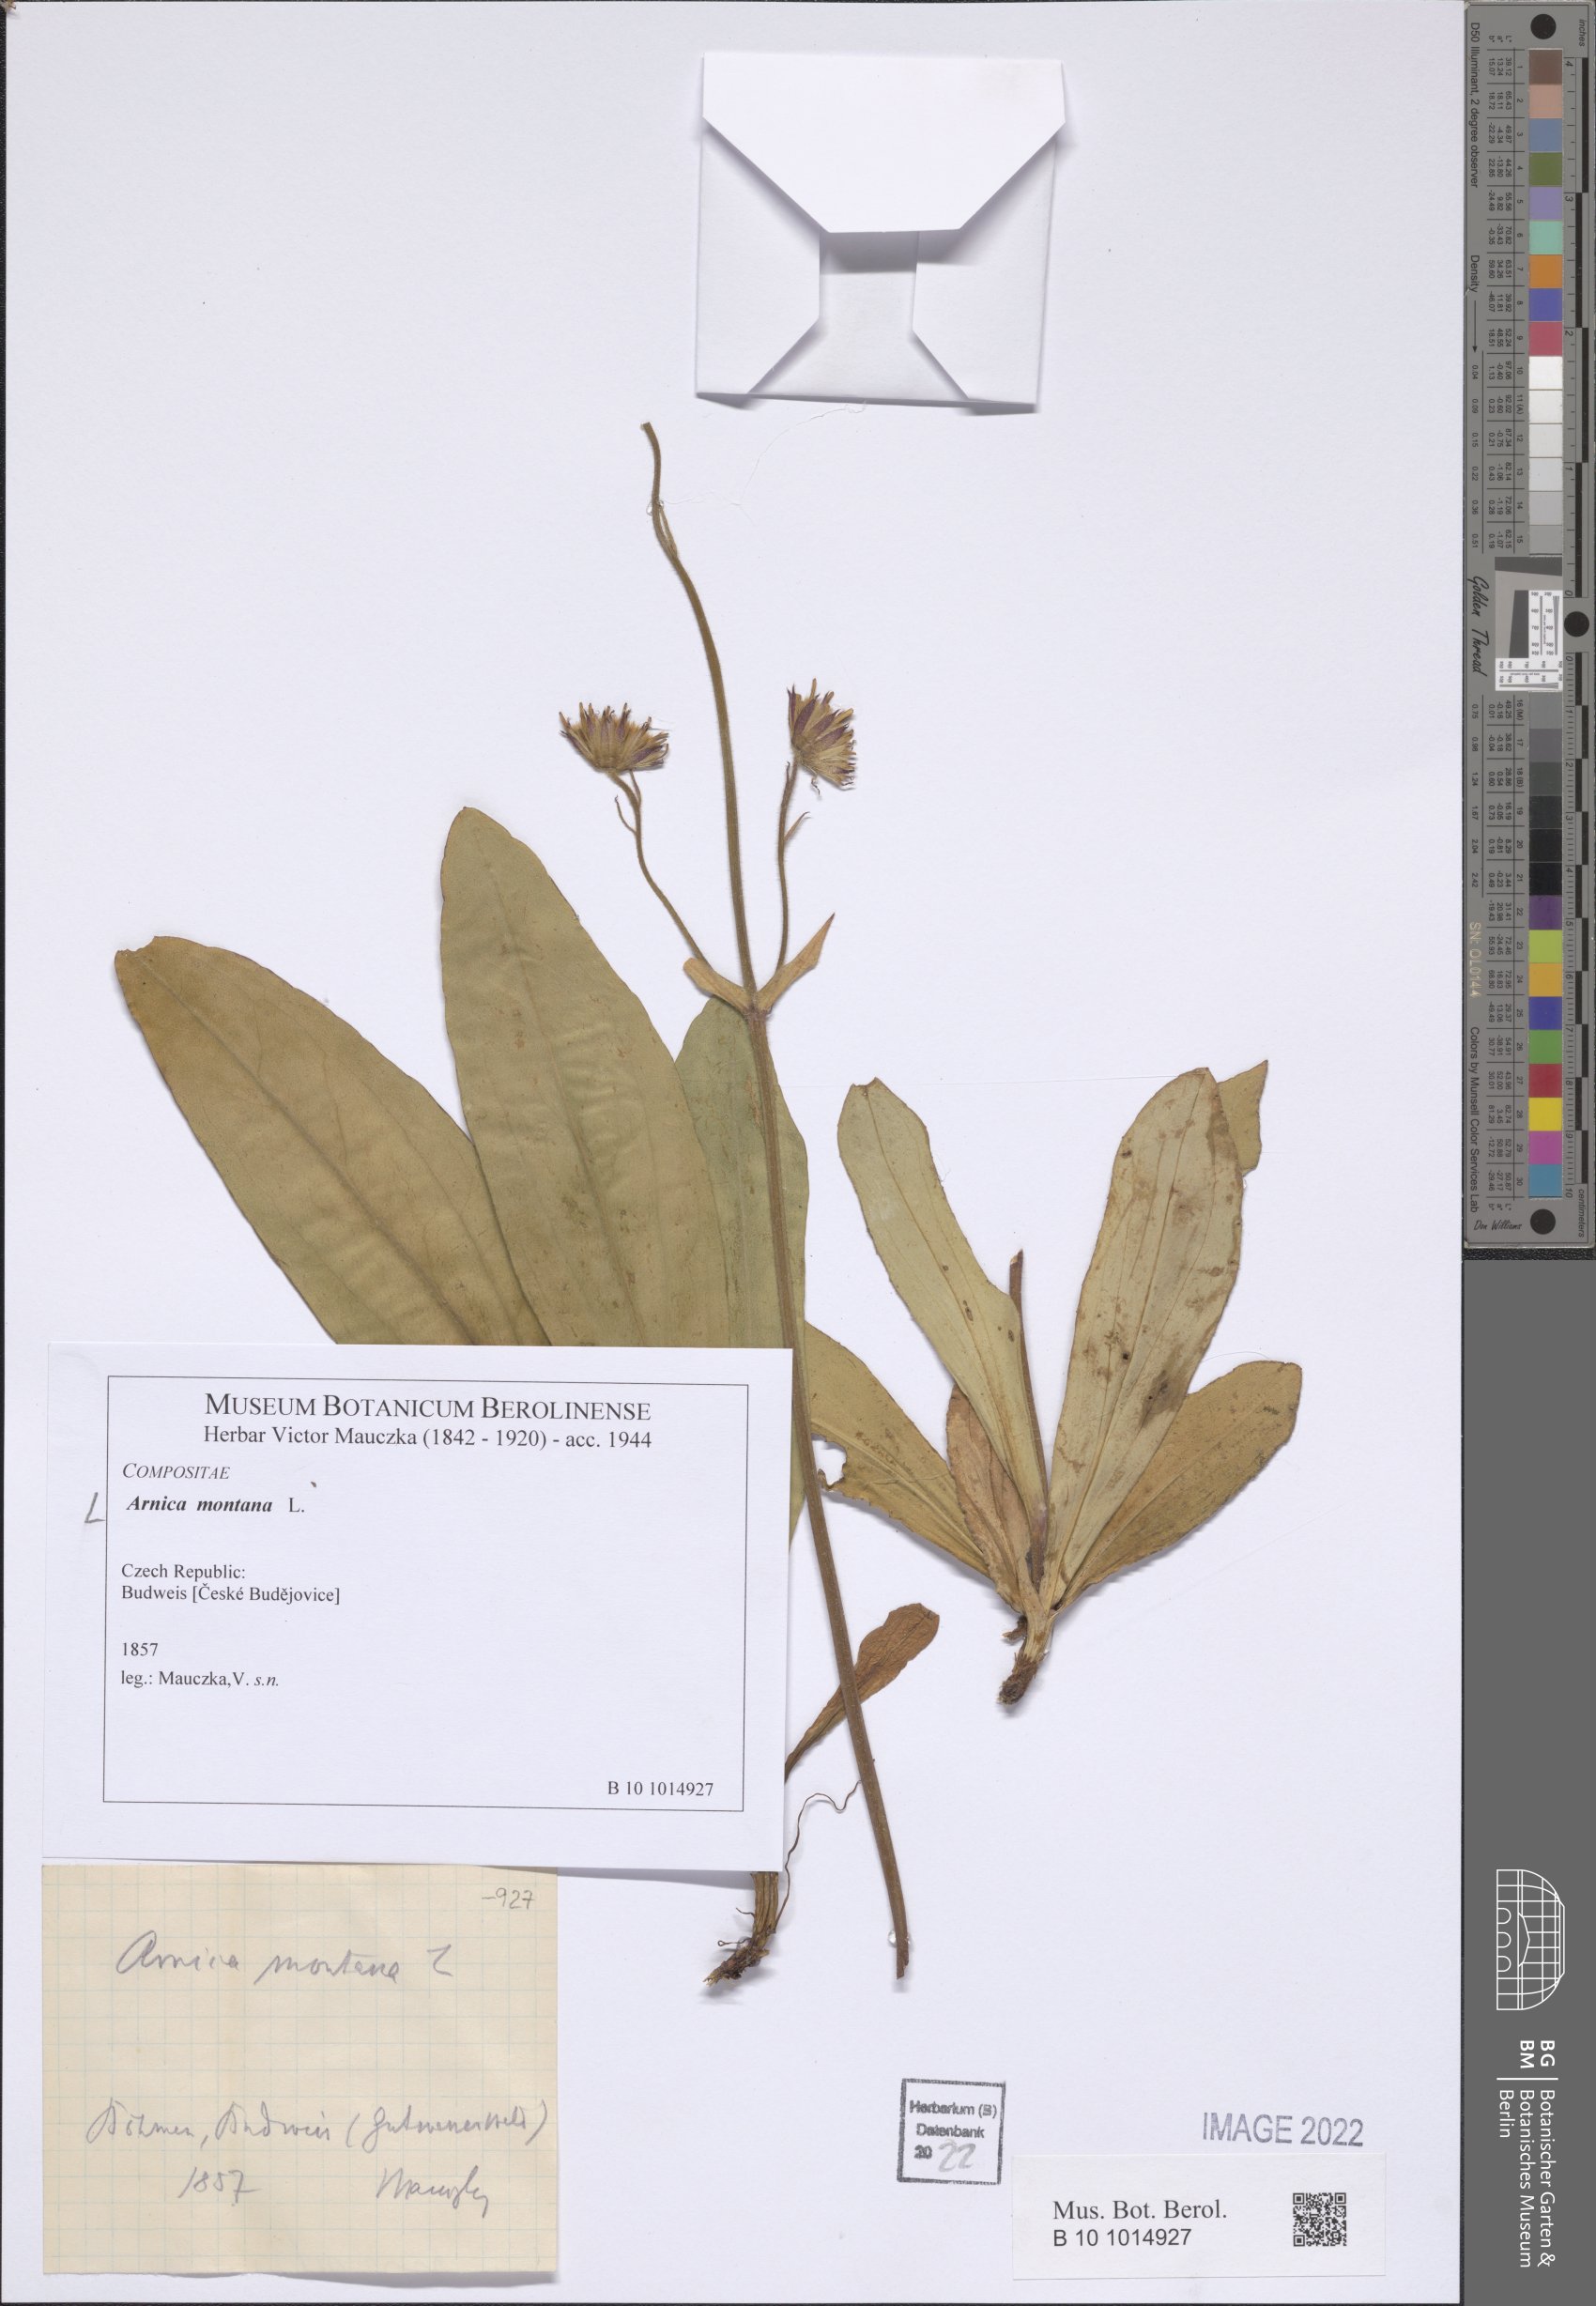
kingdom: Plantae
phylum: Tracheophyta
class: Magnoliopsida
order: Asterales
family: Asteraceae
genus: Arnica
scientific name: Arnica montana
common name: Leopard's bane
